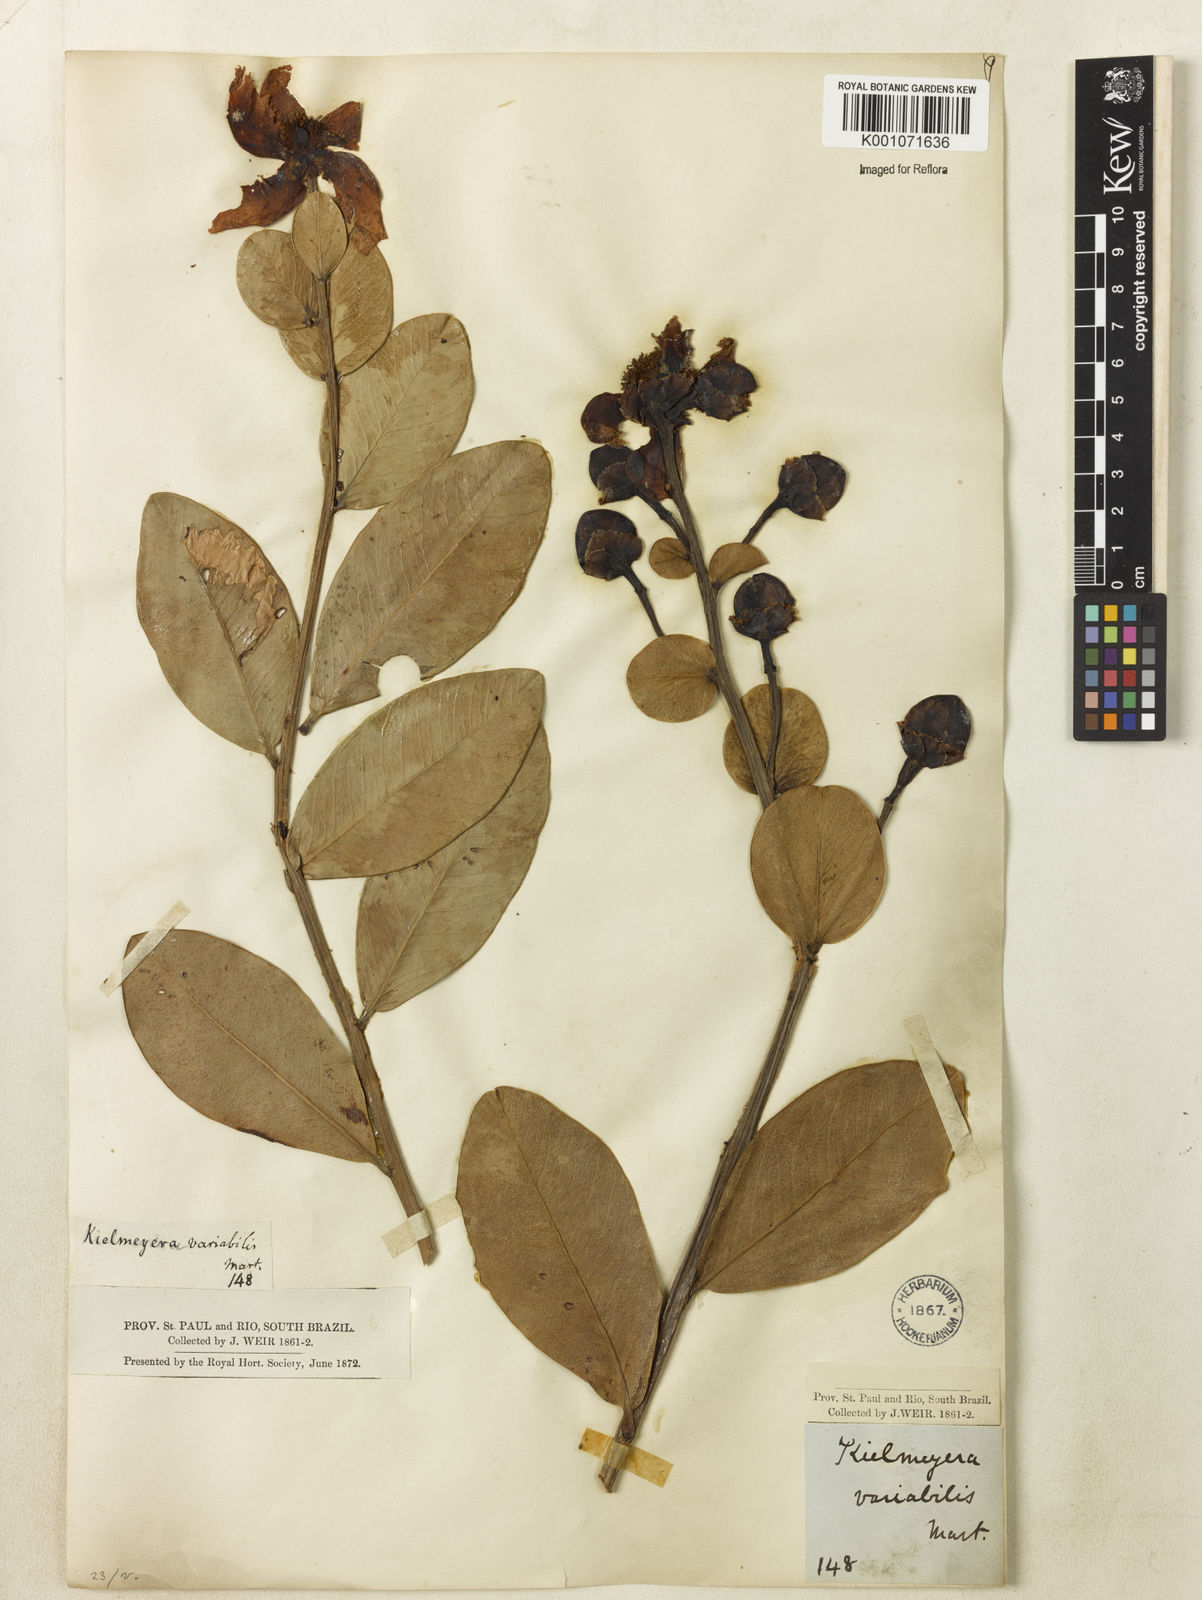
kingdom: Plantae
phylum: Tracheophyta
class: Magnoliopsida
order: Malpighiales
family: Calophyllaceae
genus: Kielmeyera
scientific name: Kielmeyera variabilis
